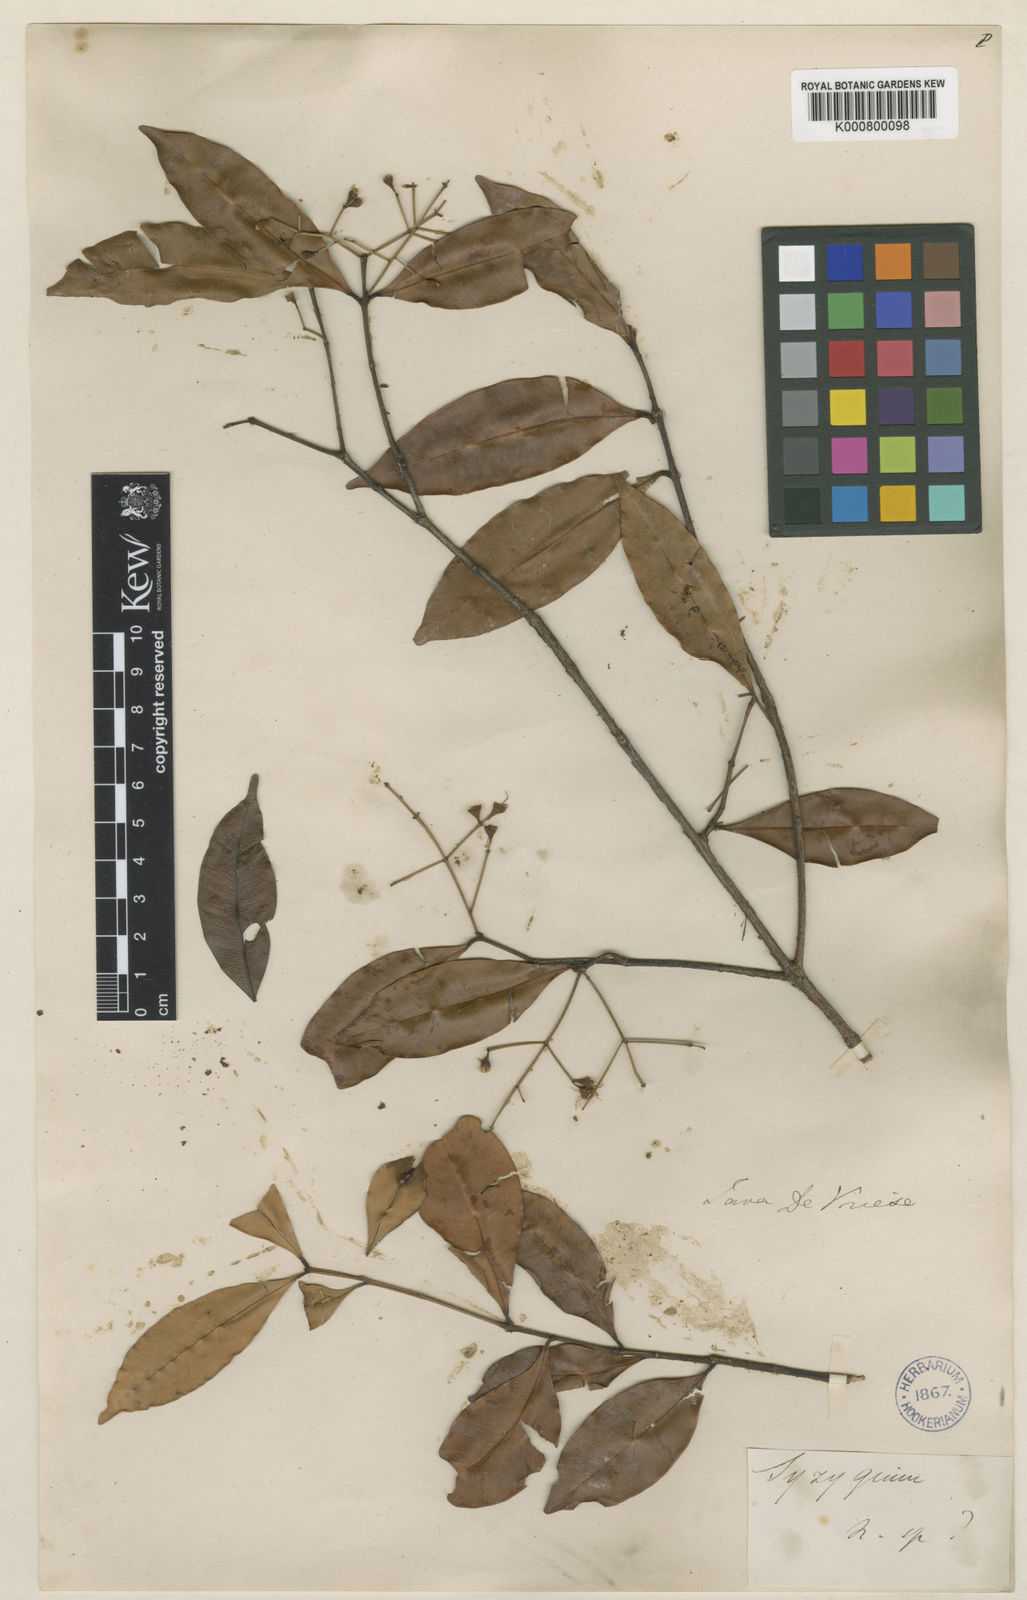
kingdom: Plantae
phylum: Tracheophyta
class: Magnoliopsida
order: Myrtales
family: Myrtaceae
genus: Syzygium
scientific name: Syzygium myrtifolium
